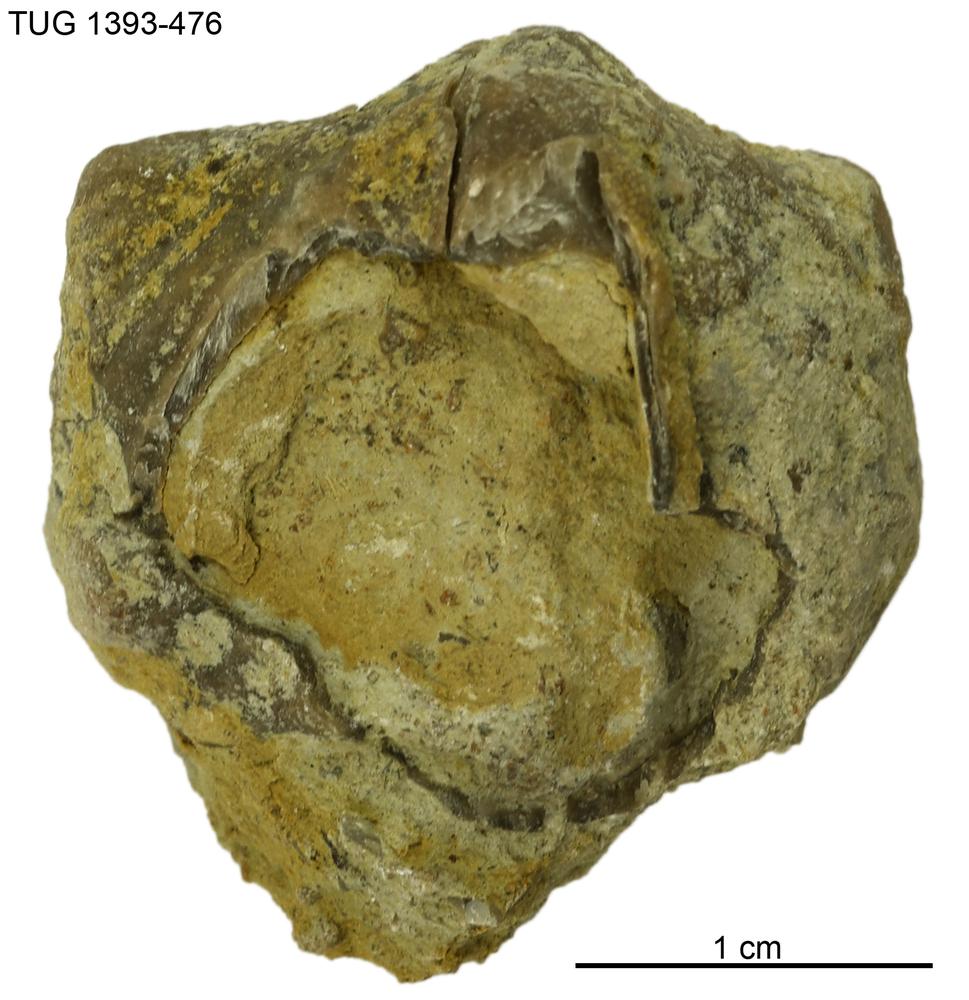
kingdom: Animalia
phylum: Brachiopoda
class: Rhynchonellata
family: Plectorthidae
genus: Platystrophia
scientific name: Platystrophia
